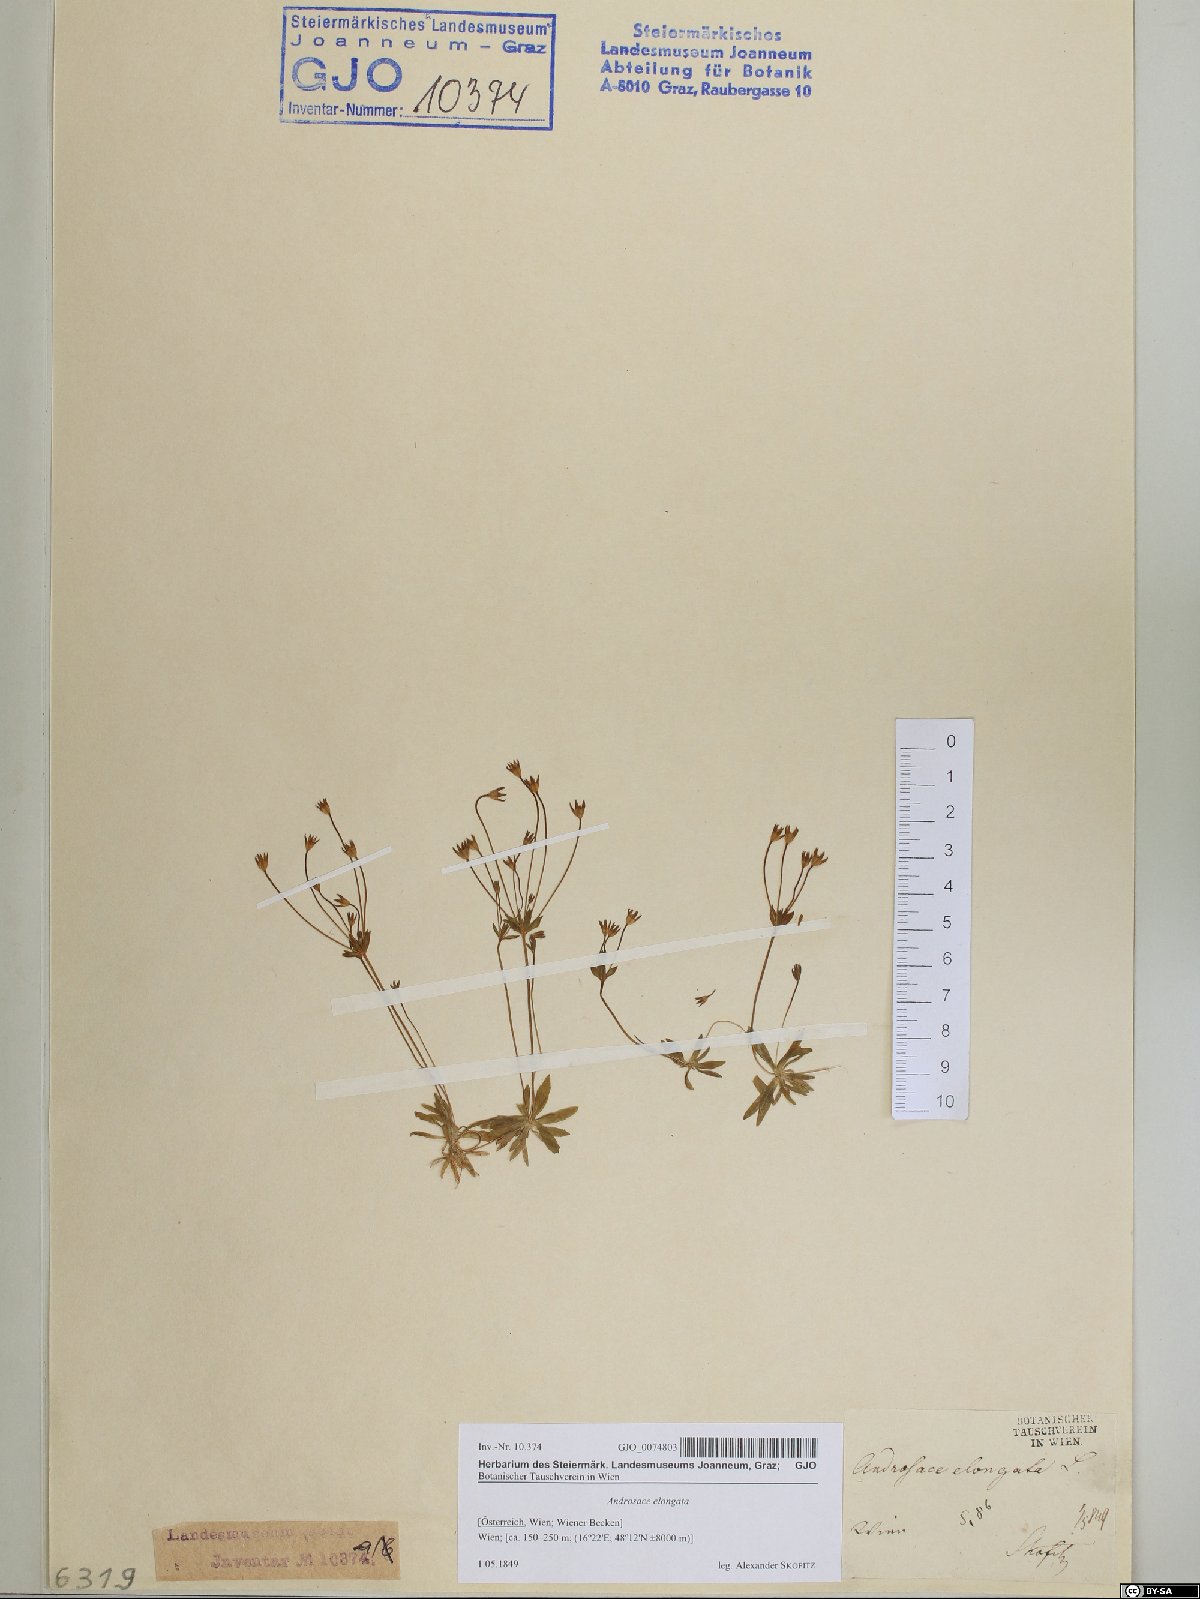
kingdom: Plantae
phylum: Tracheophyta
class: Magnoliopsida
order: Ericales
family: Primulaceae
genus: Androsace
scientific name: Androsace elongata
